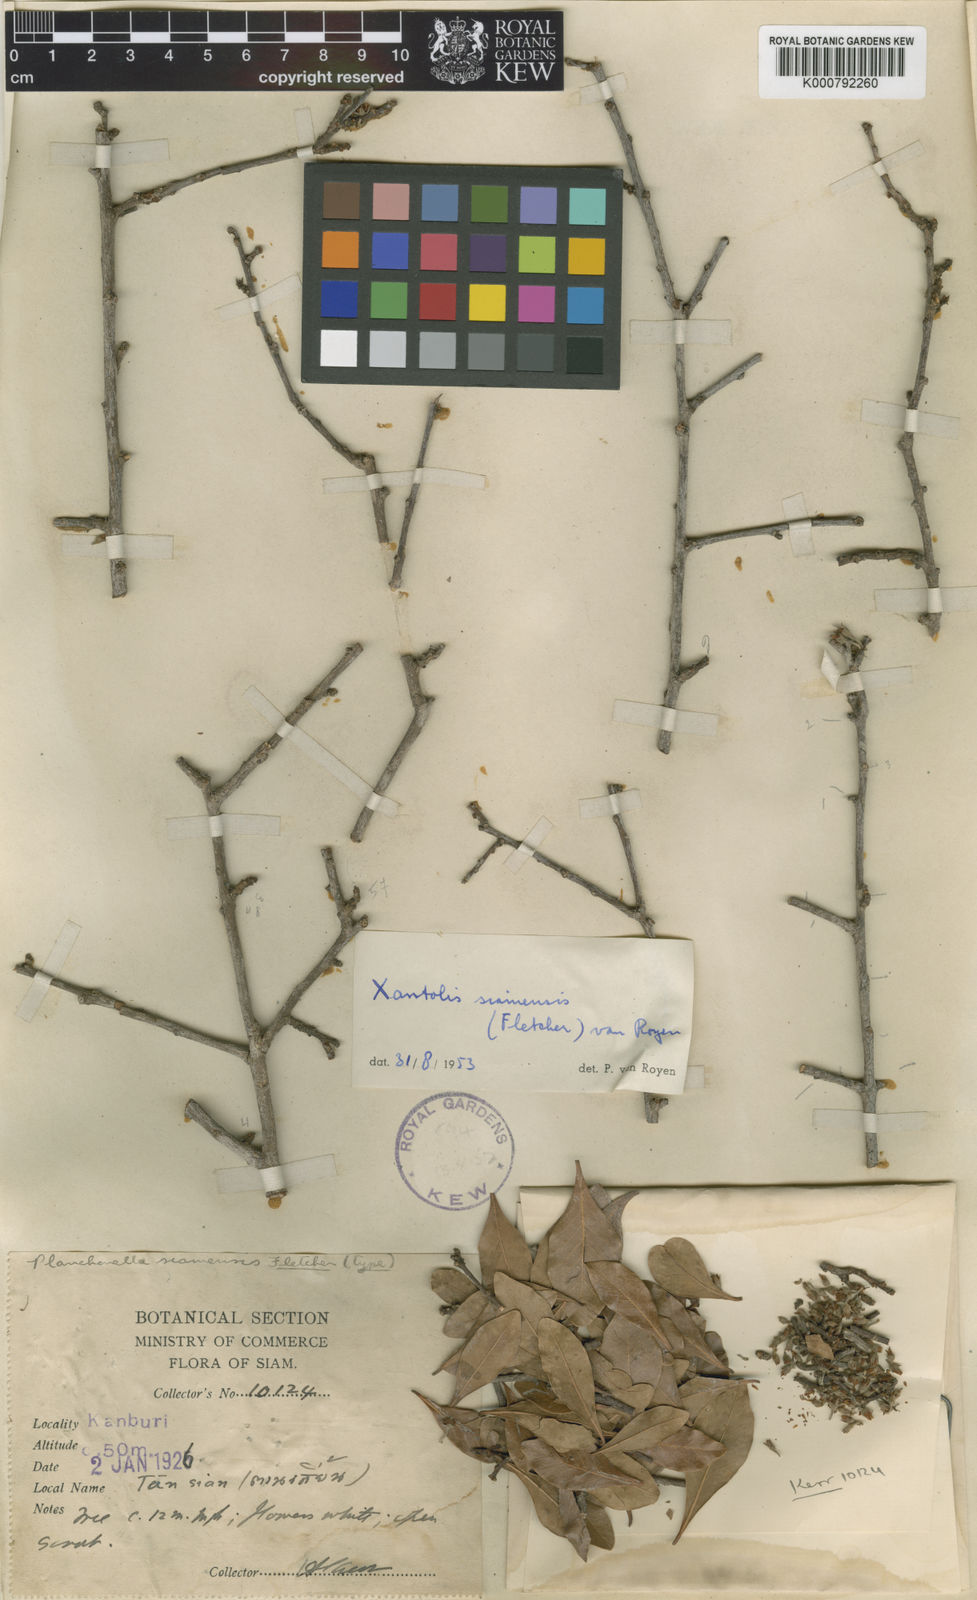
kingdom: Plantae
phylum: Tracheophyta
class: Magnoliopsida
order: Ericales
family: Sapotaceae
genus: Xantolis
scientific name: Xantolis siamensis
